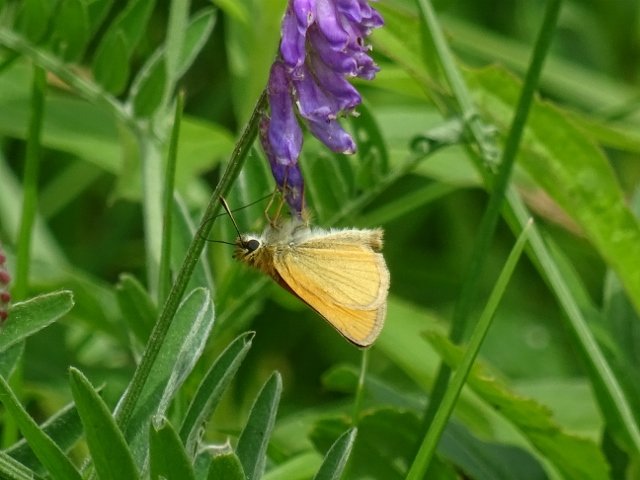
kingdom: Animalia
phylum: Arthropoda
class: Insecta
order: Lepidoptera
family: Hesperiidae
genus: Thymelicus
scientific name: Thymelicus lineola
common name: European Skipper
